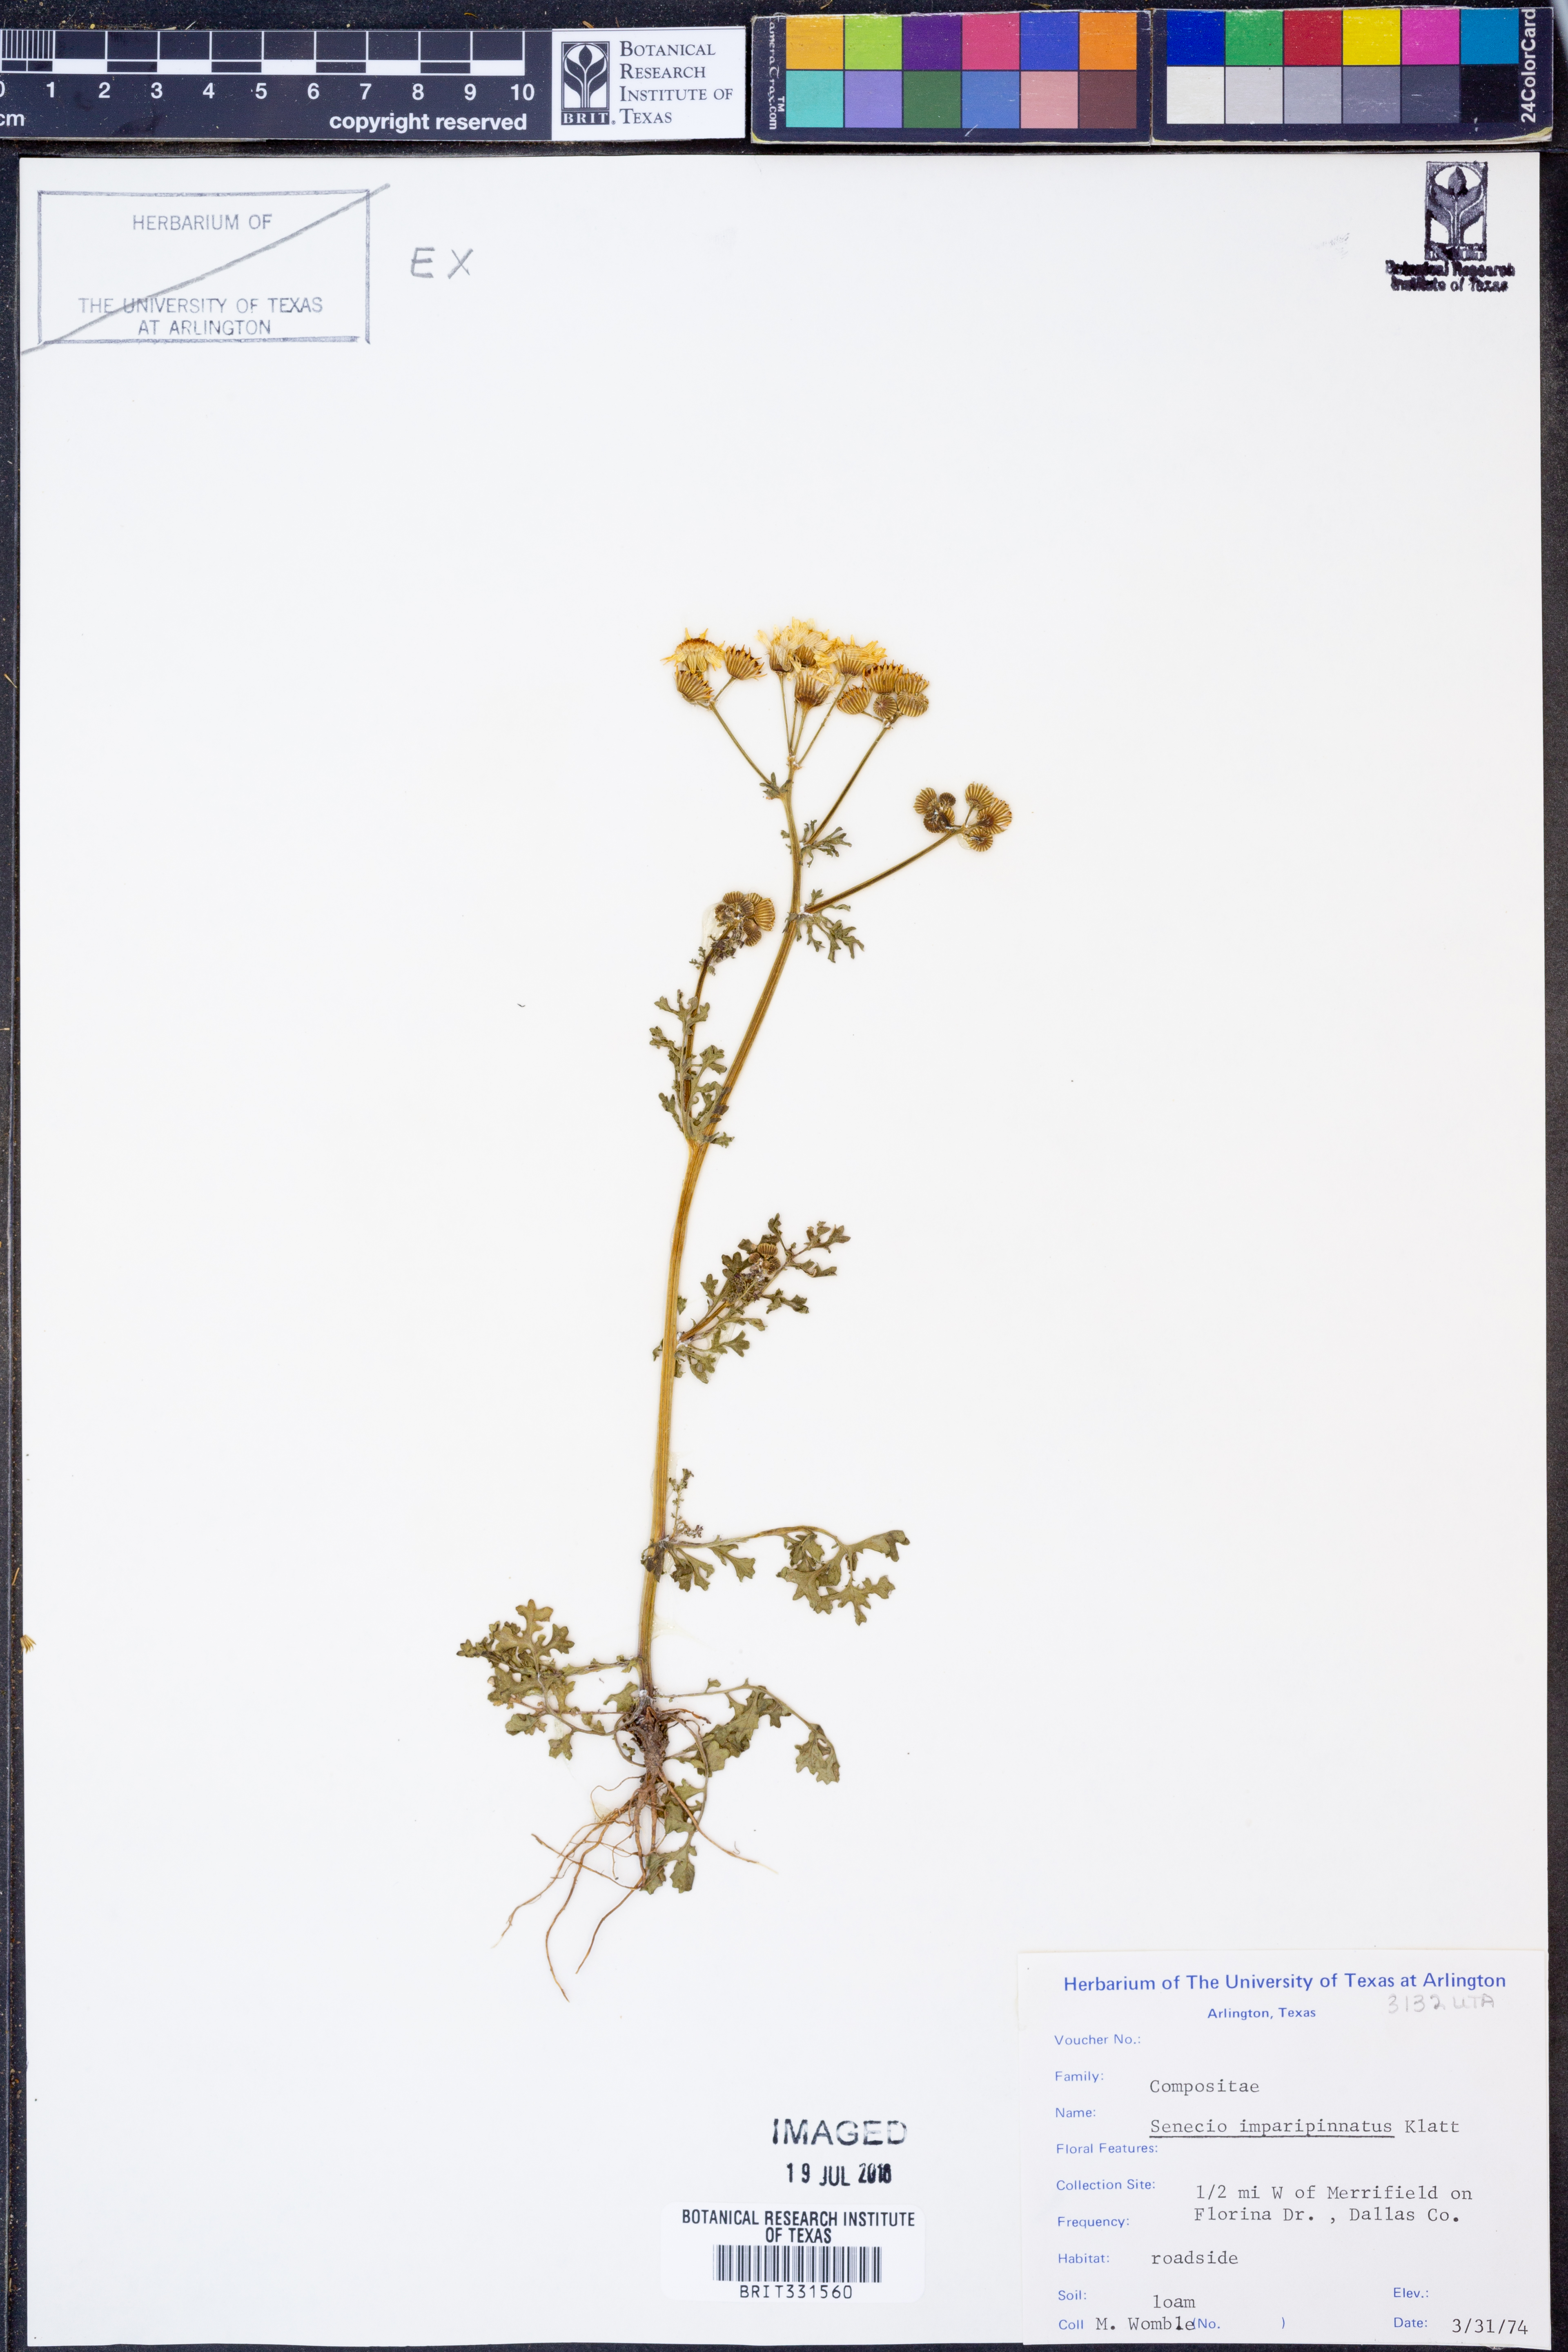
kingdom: Plantae
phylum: Tracheophyta
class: Magnoliopsida
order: Asterales
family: Asteraceae
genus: Packera
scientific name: Packera tampicana
